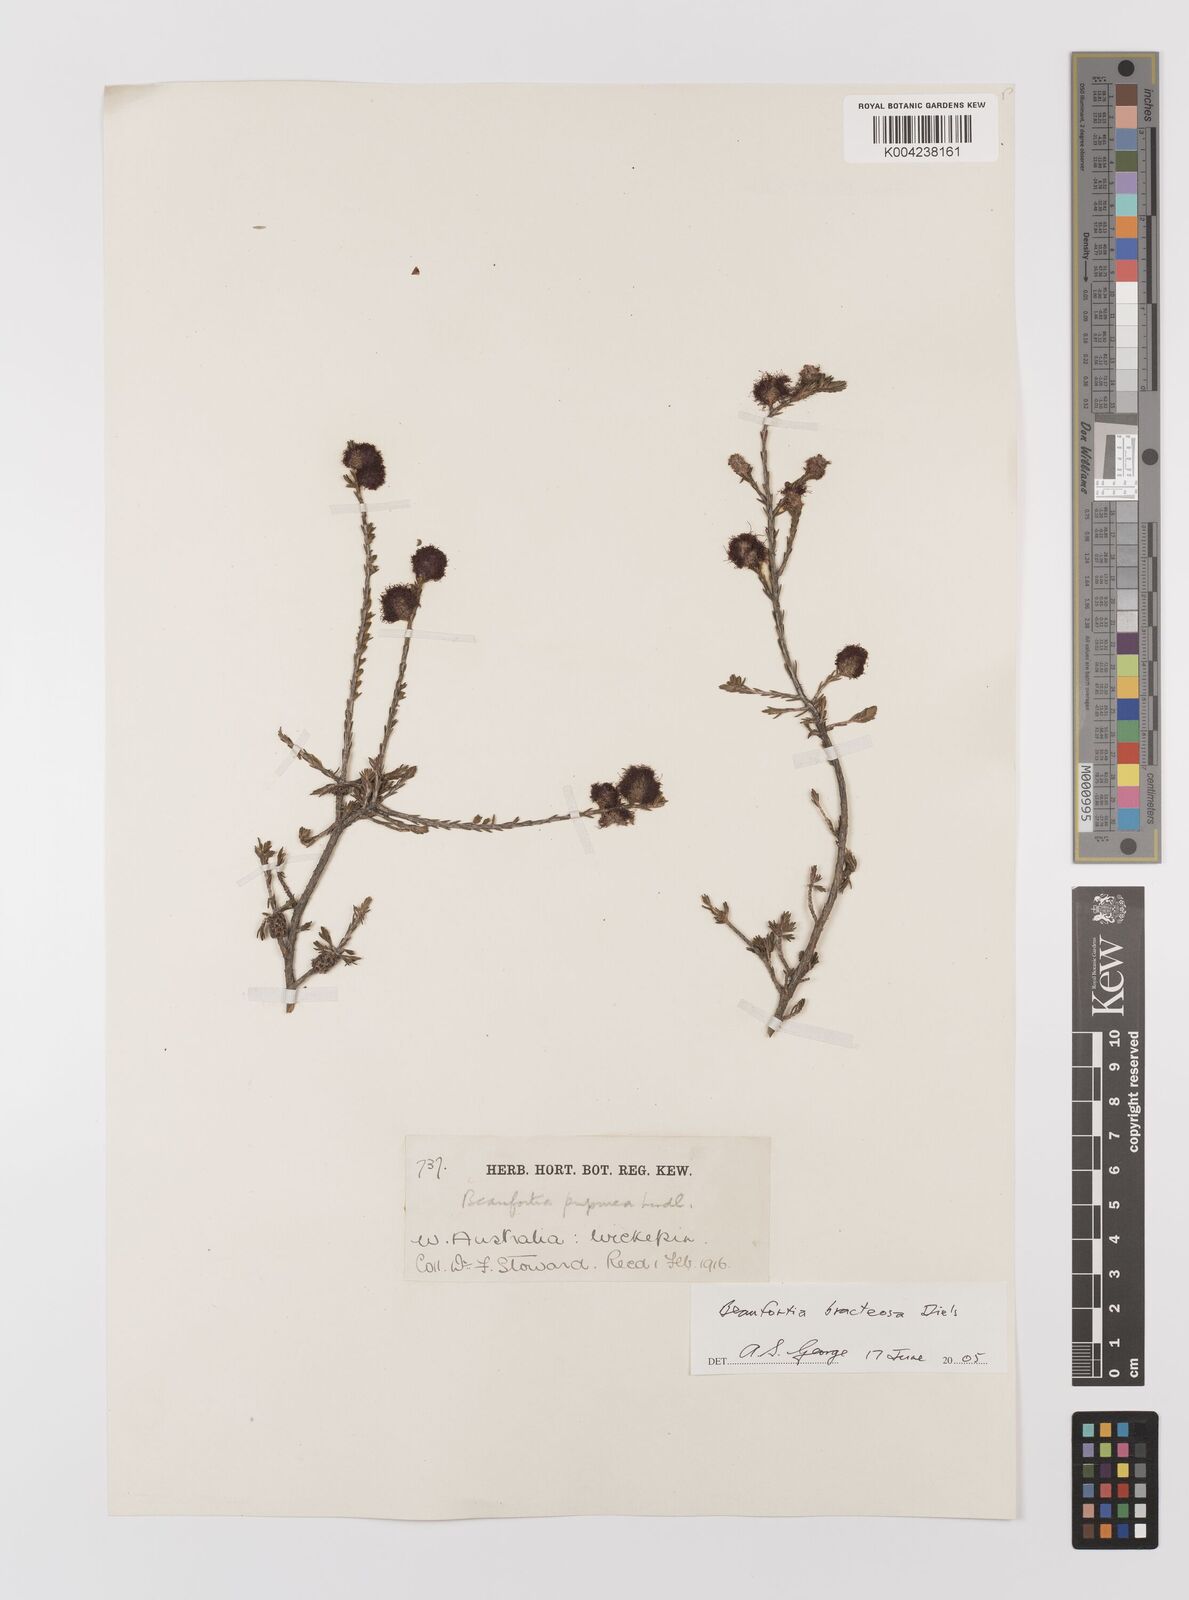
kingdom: Plantae
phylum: Tracheophyta
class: Magnoliopsida
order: Myrtales
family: Myrtaceae
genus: Melaleuca
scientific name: Melaleuca glumacea
